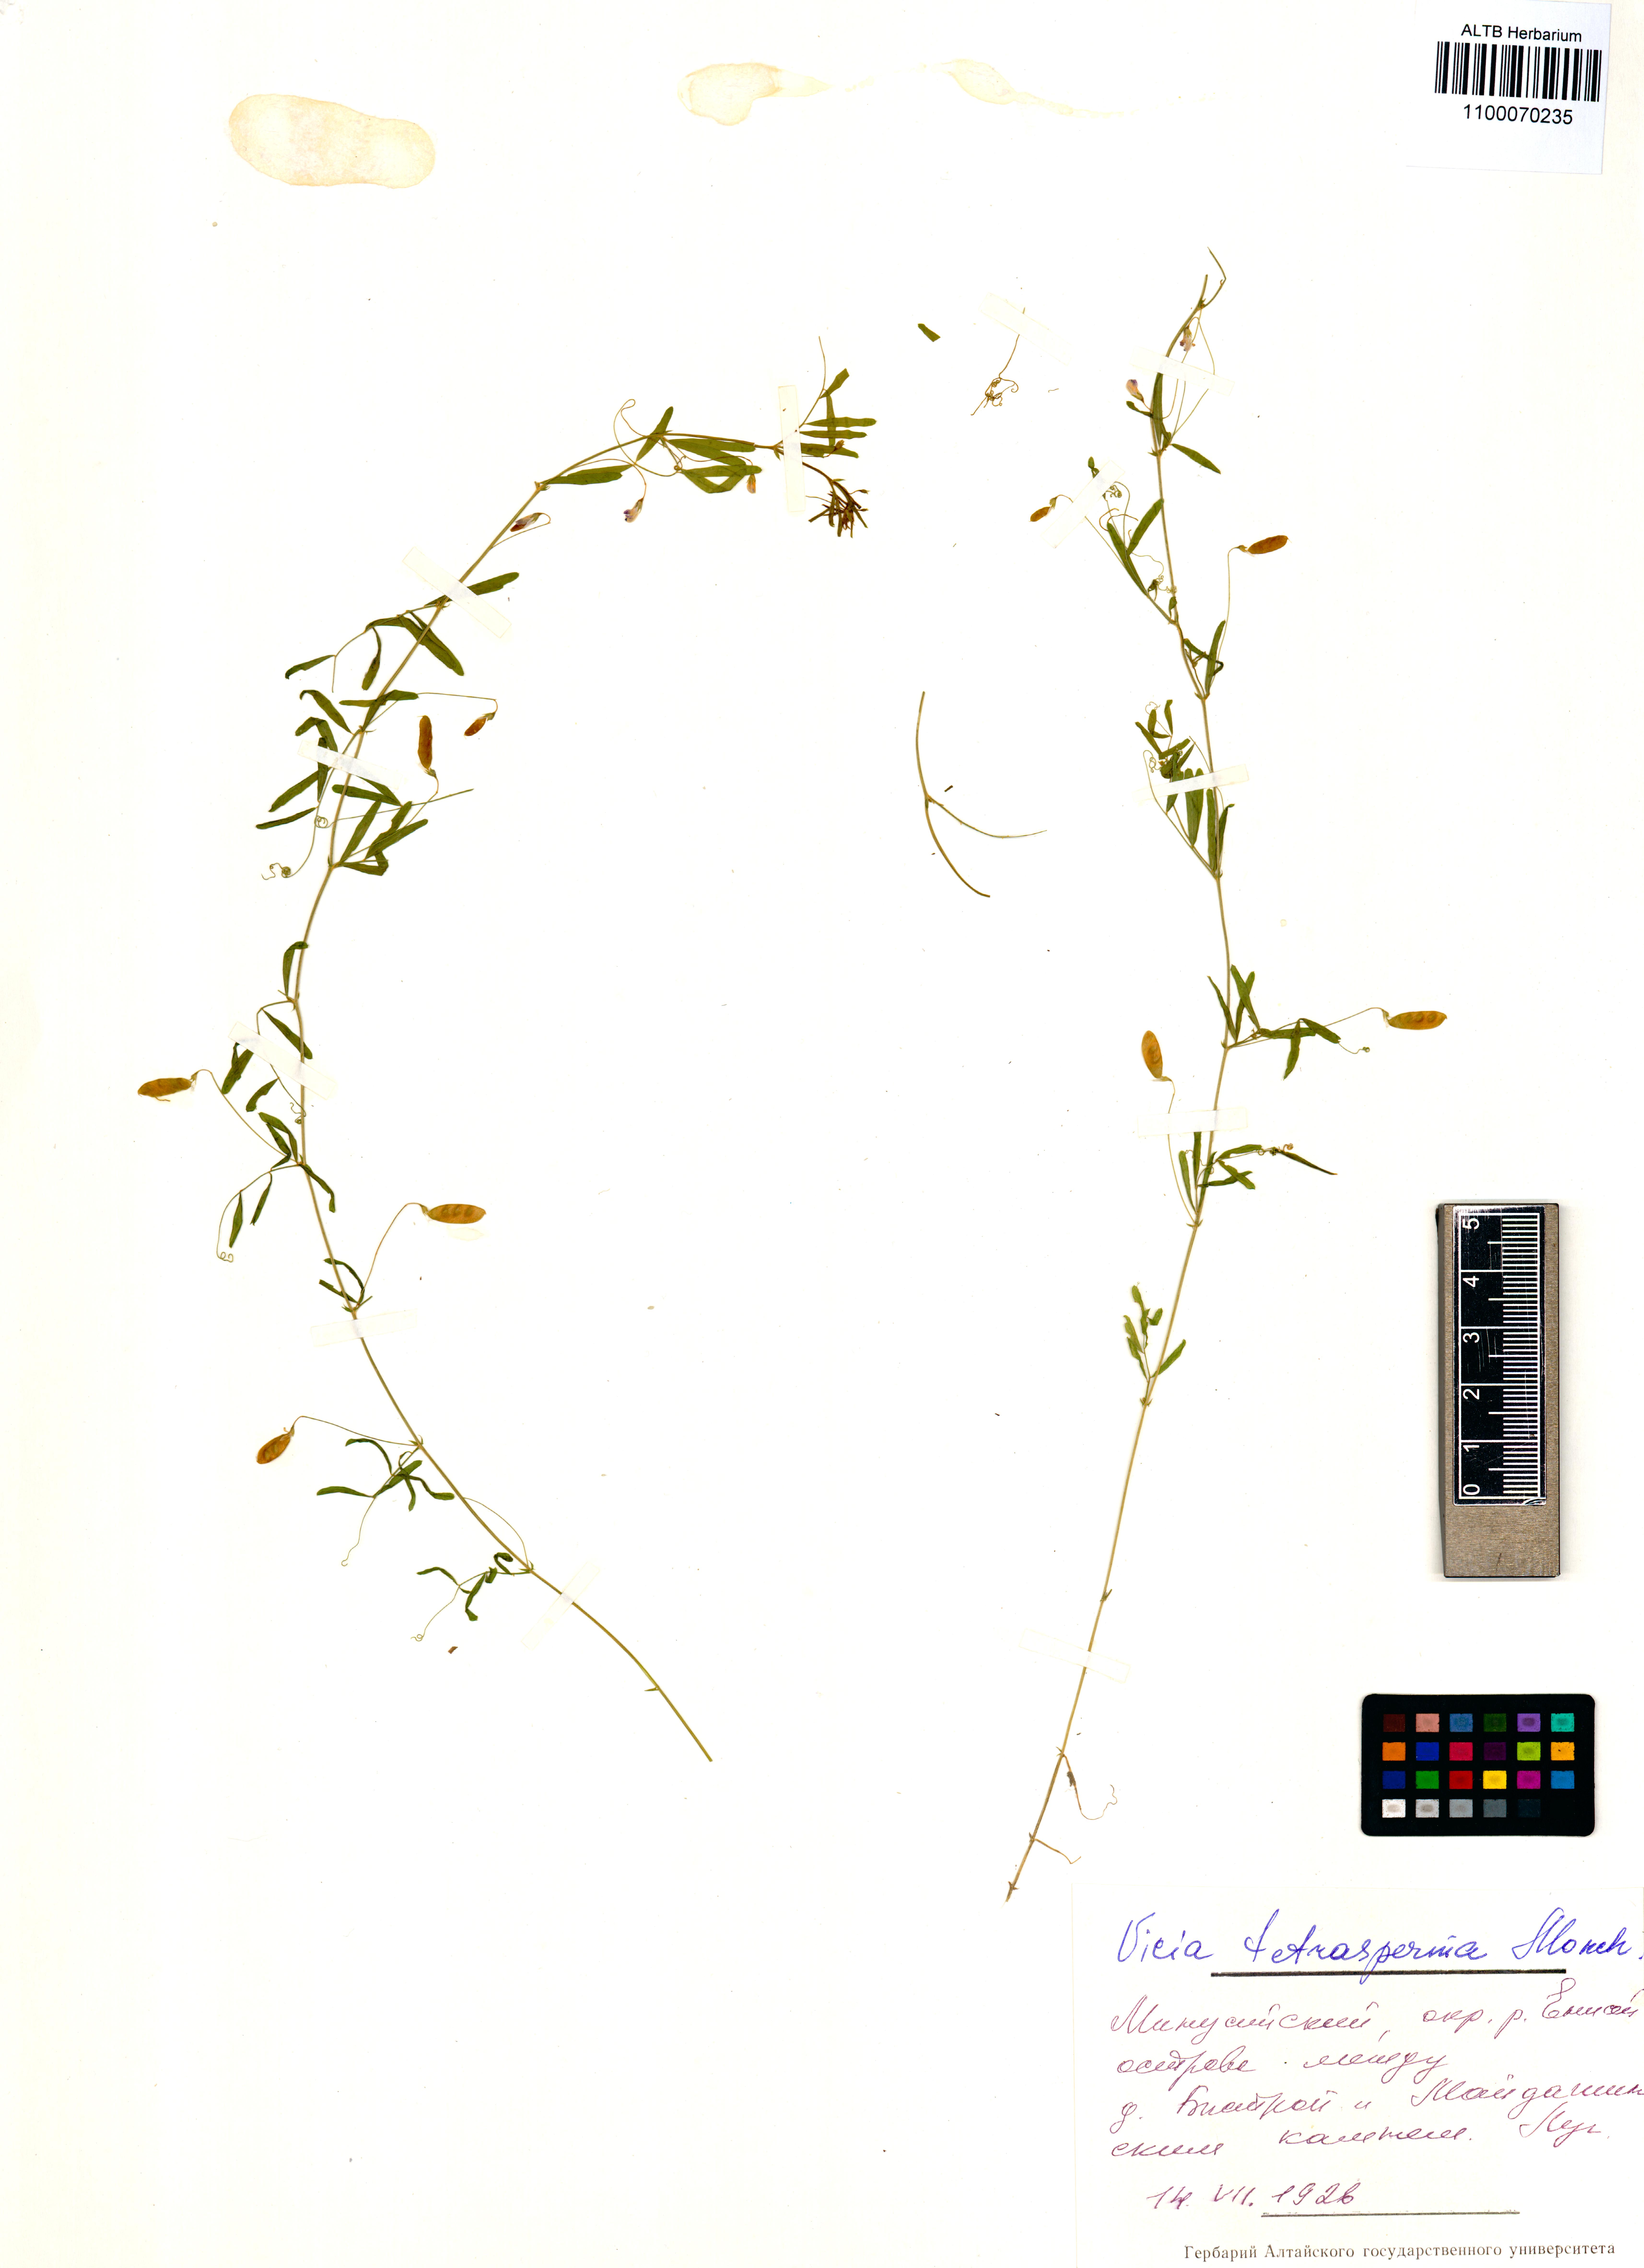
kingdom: Plantae
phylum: Tracheophyta
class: Magnoliopsida
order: Fabales
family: Fabaceae
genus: Vicia
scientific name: Vicia tetrasperma
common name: Smooth tare
